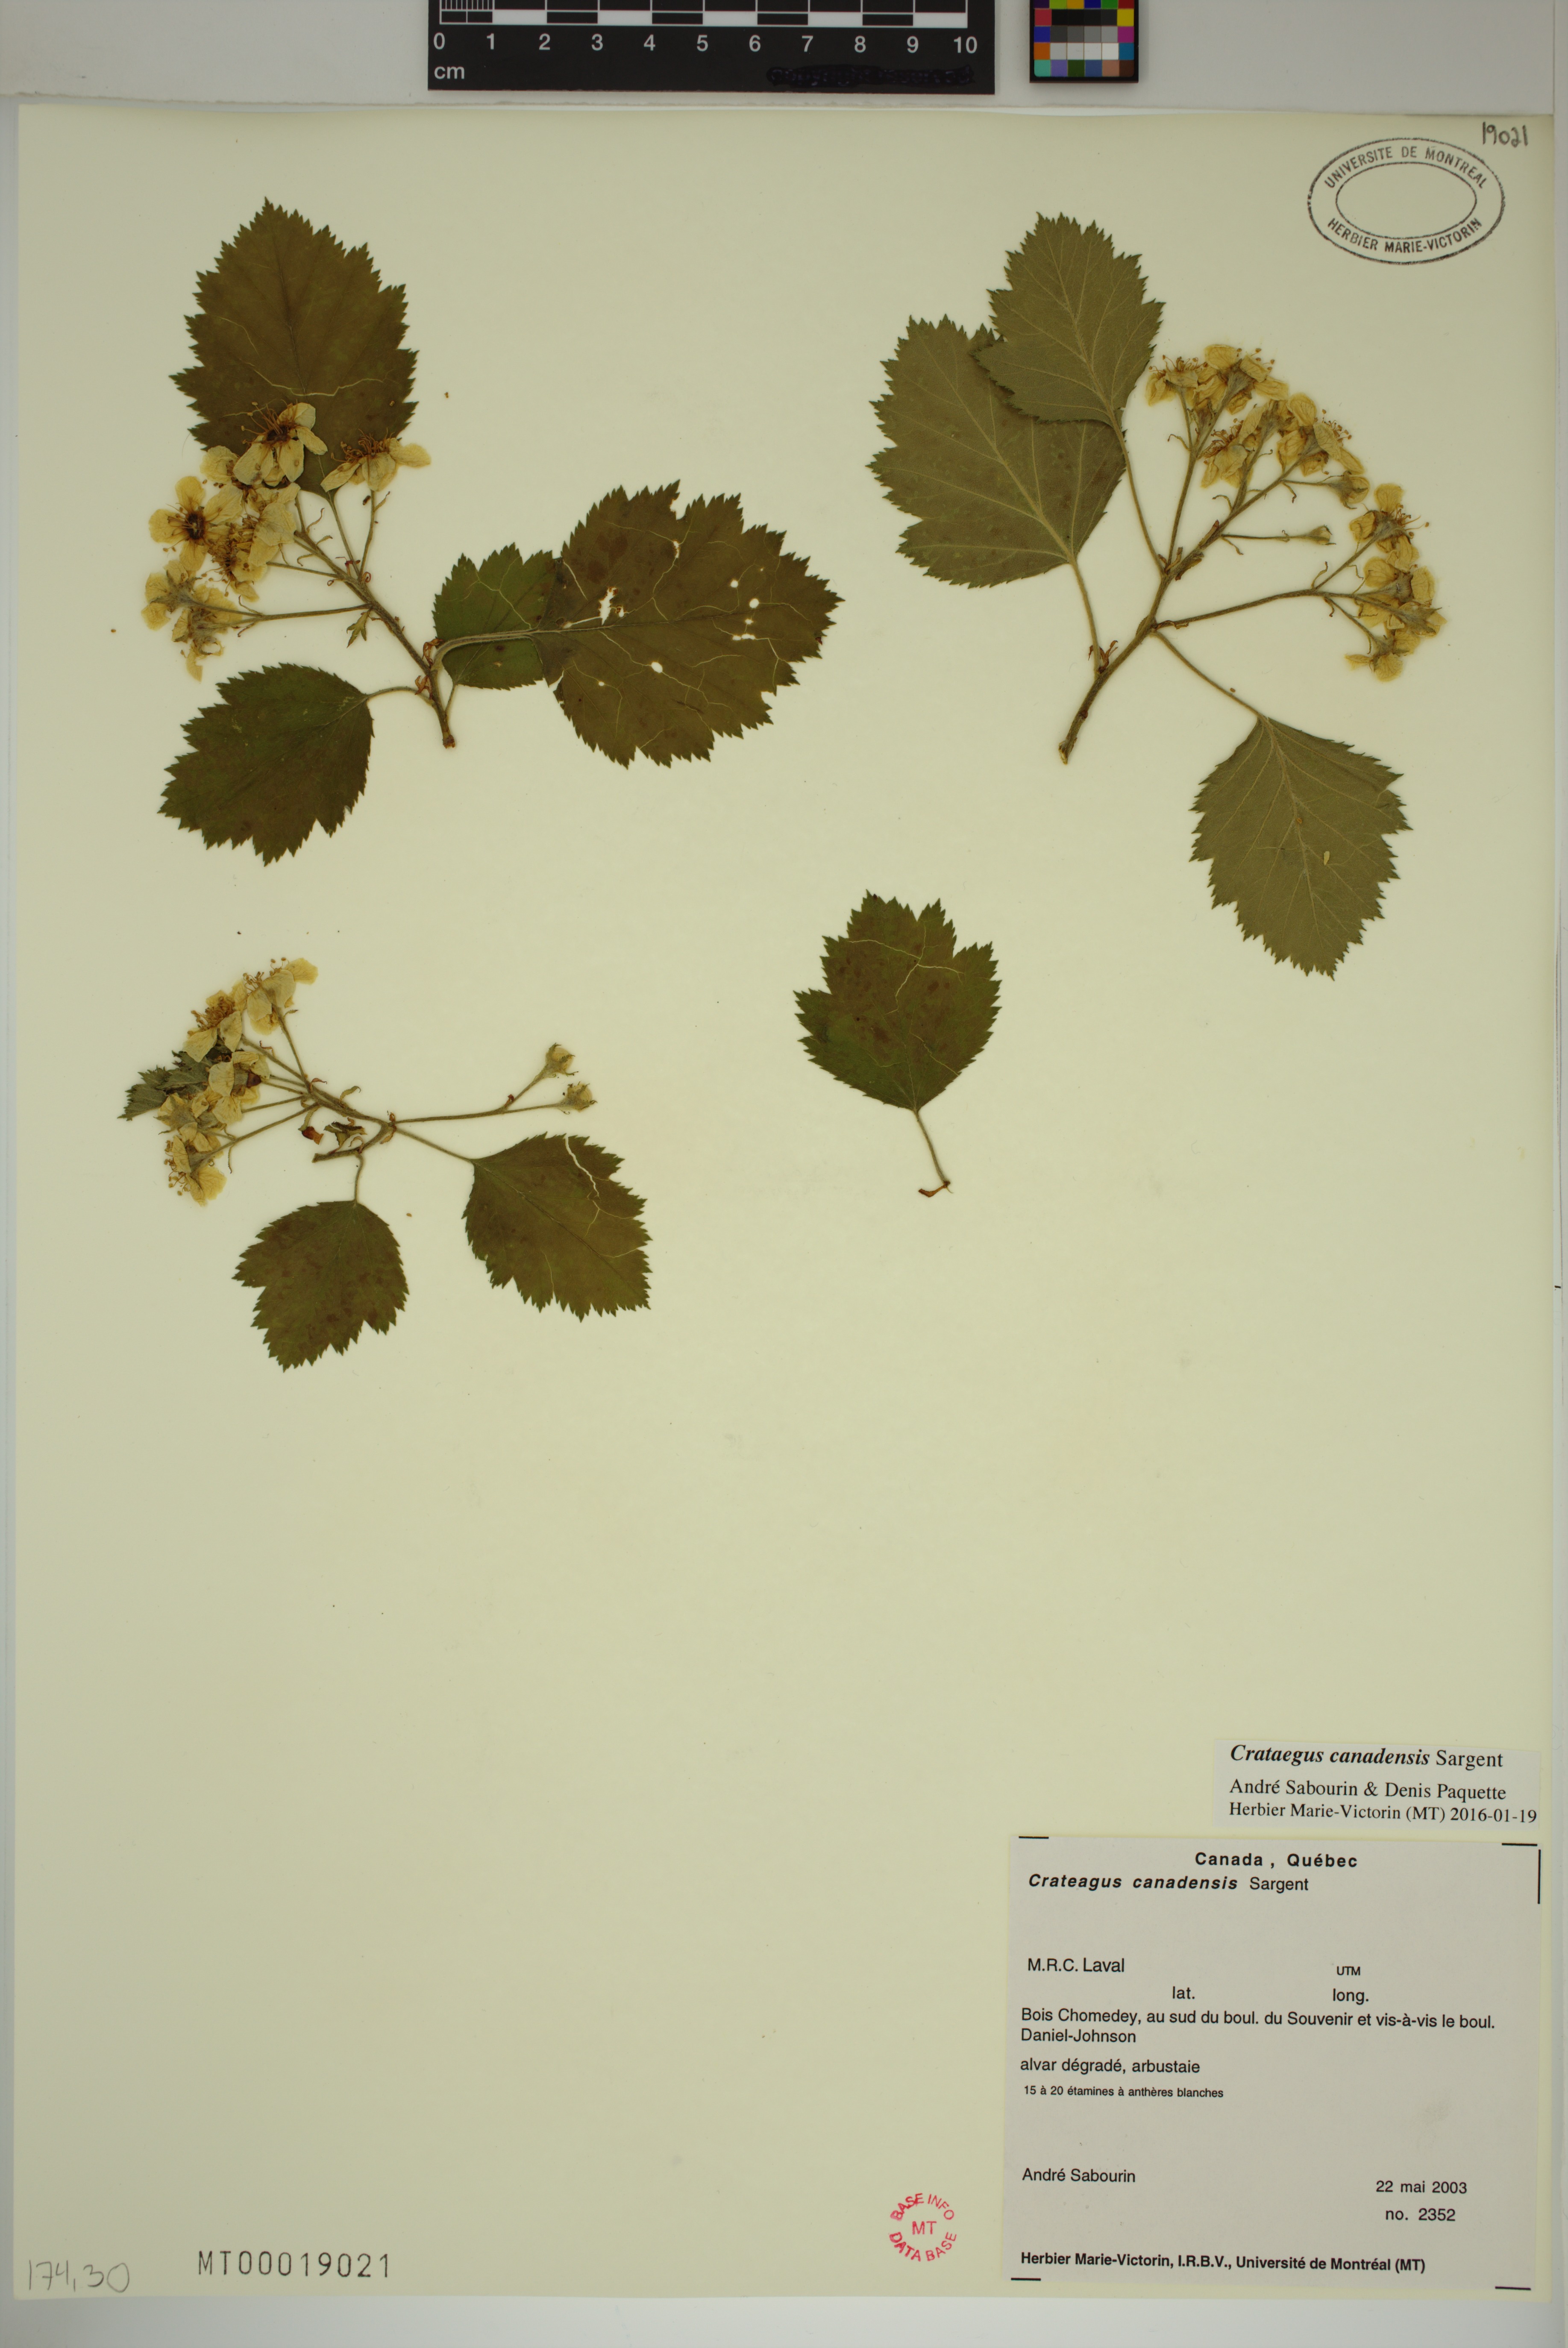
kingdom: Plantae
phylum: Tracheophyta
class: Magnoliopsida
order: Rosales
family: Rosaceae
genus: Crataegus
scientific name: Crataegus submollis
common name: Hairy cockspurthorn
